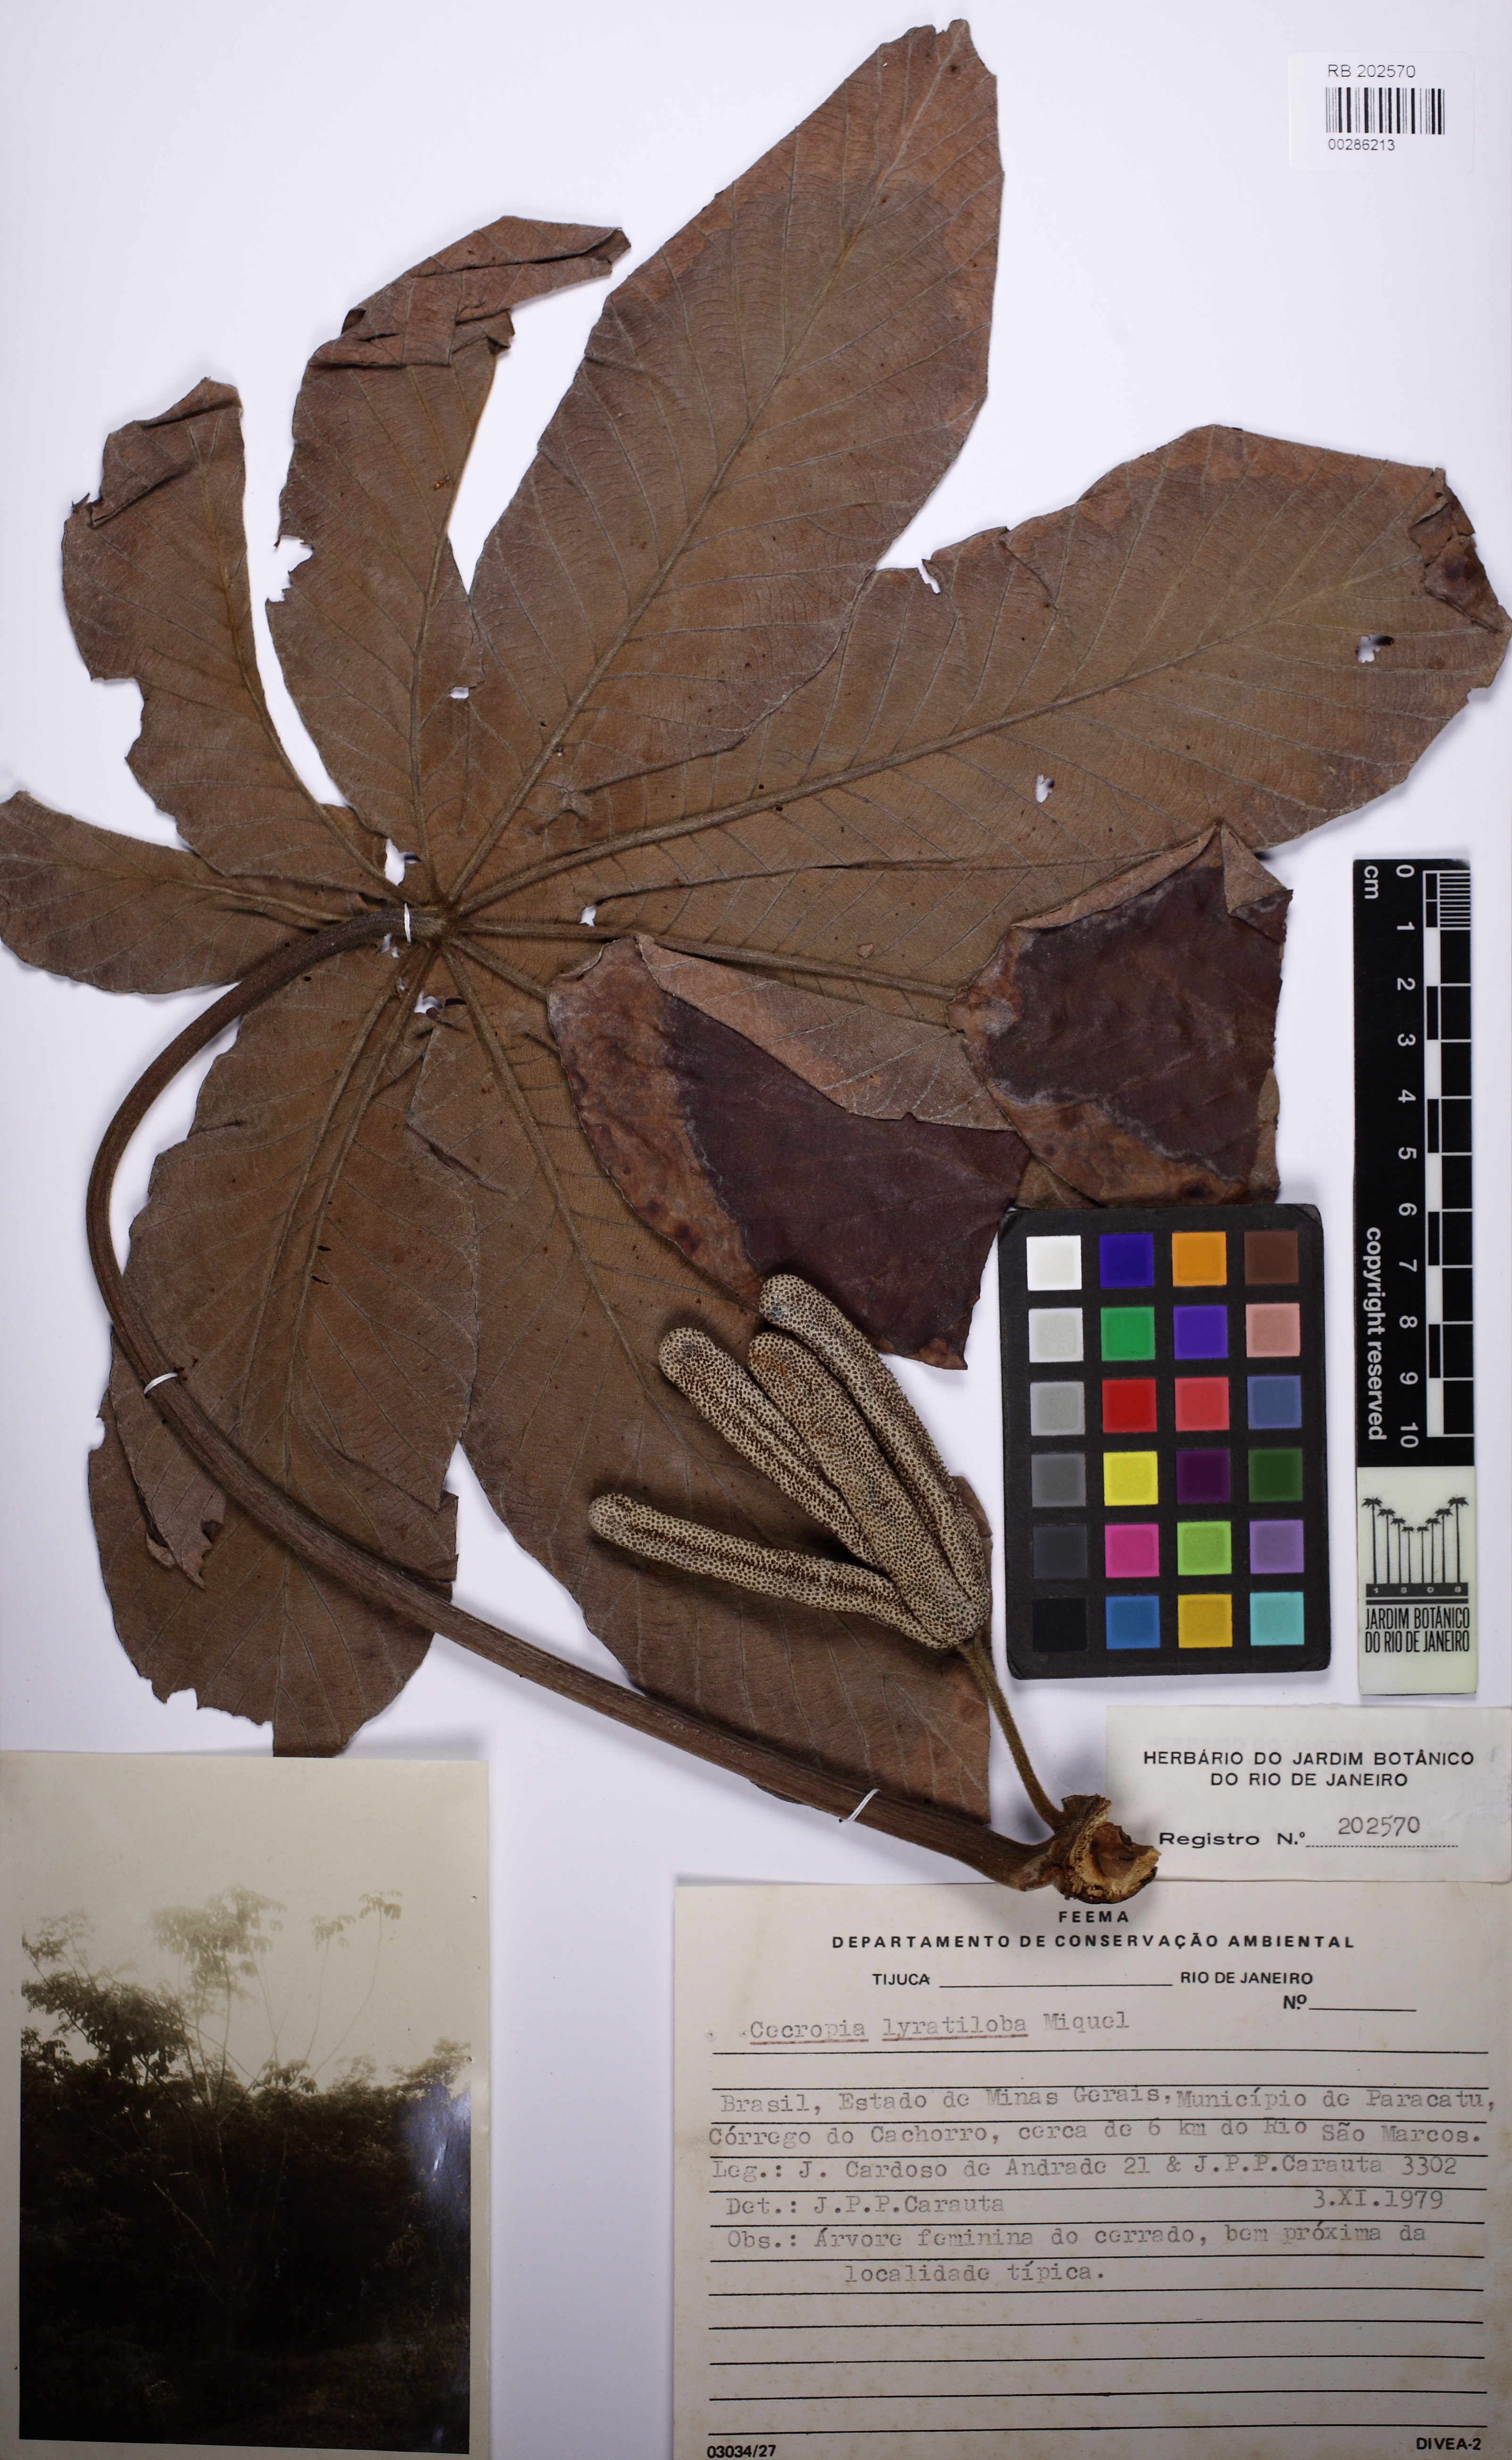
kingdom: Plantae
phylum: Tracheophyta
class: Magnoliopsida
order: Rosales
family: Urticaceae
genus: Cecropia
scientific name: Cecropia pachystachya
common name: Ambay pumpwood
